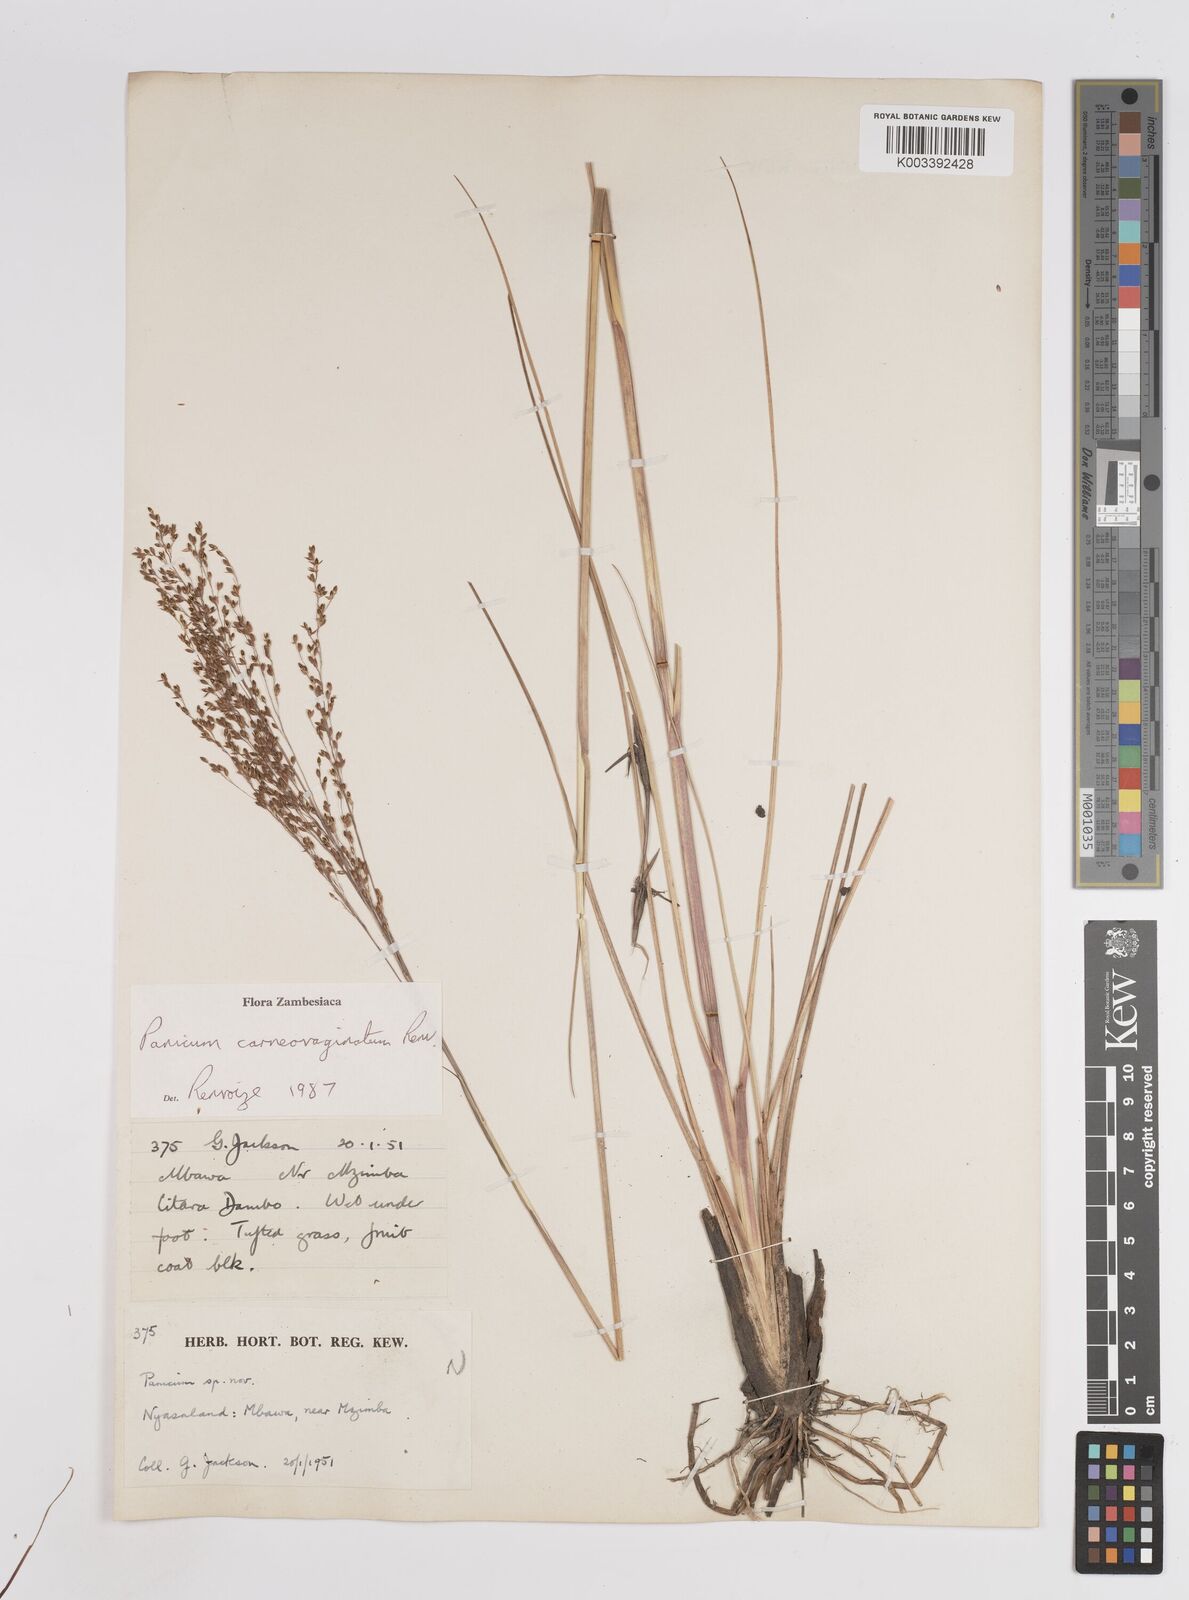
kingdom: Plantae
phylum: Tracheophyta
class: Liliopsida
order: Poales
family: Poaceae
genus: Panicum
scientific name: Panicum carneovaginatum
